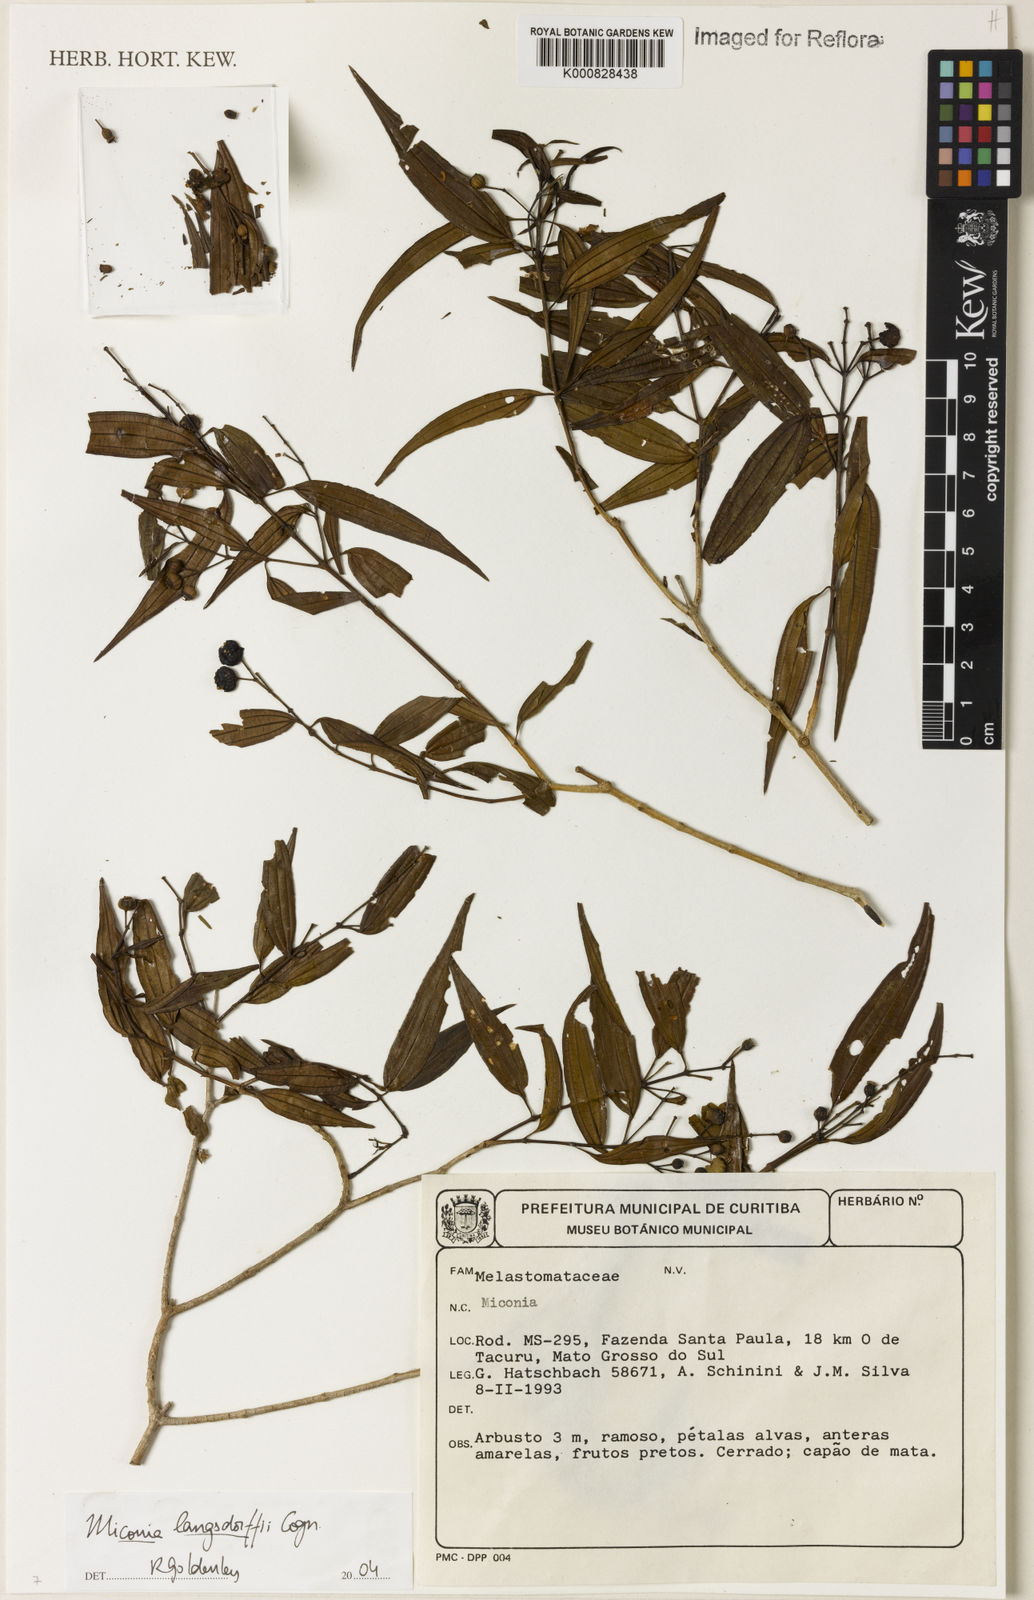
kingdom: Plantae
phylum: Tracheophyta
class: Magnoliopsida
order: Myrtales
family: Melastomataceae
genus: Miconia
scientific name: Miconia langsdorffii
